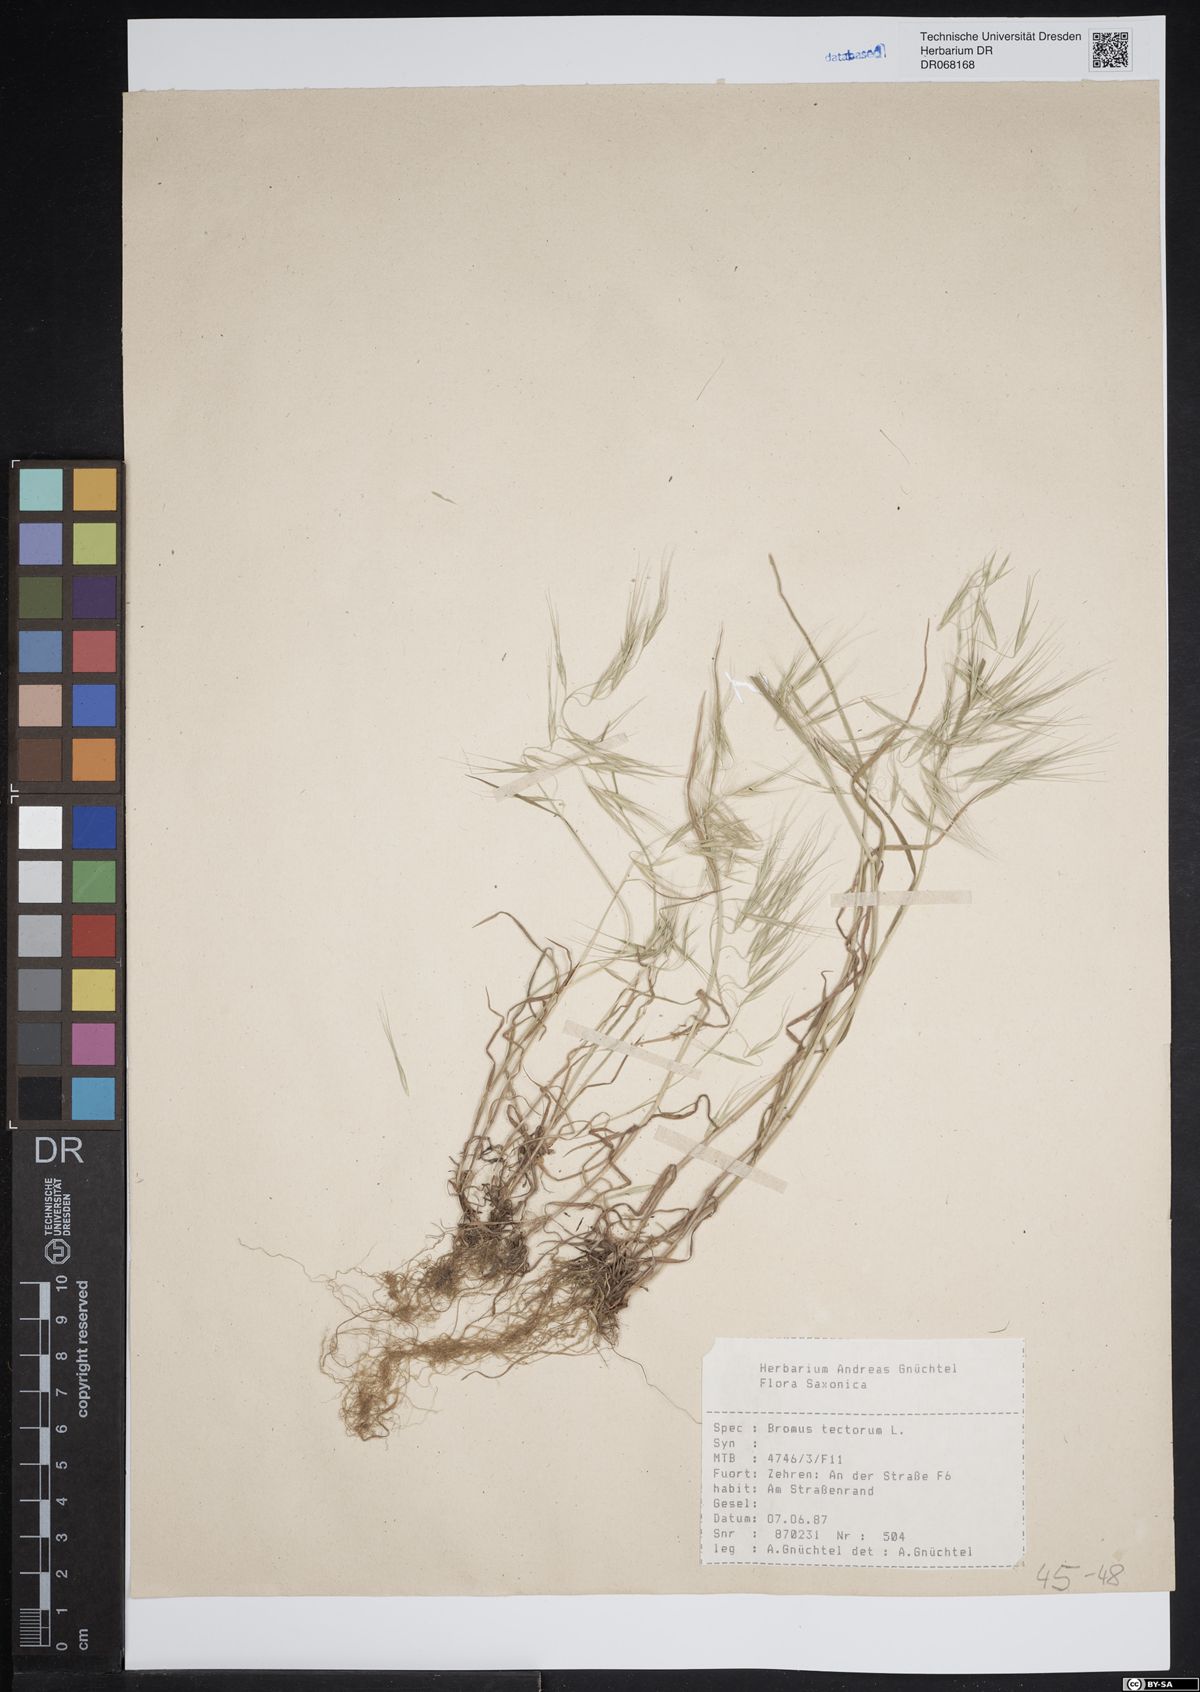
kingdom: Plantae
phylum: Tracheophyta
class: Liliopsida
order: Poales
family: Poaceae
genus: Bromus
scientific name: Bromus tectorum
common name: Cheatgrass
